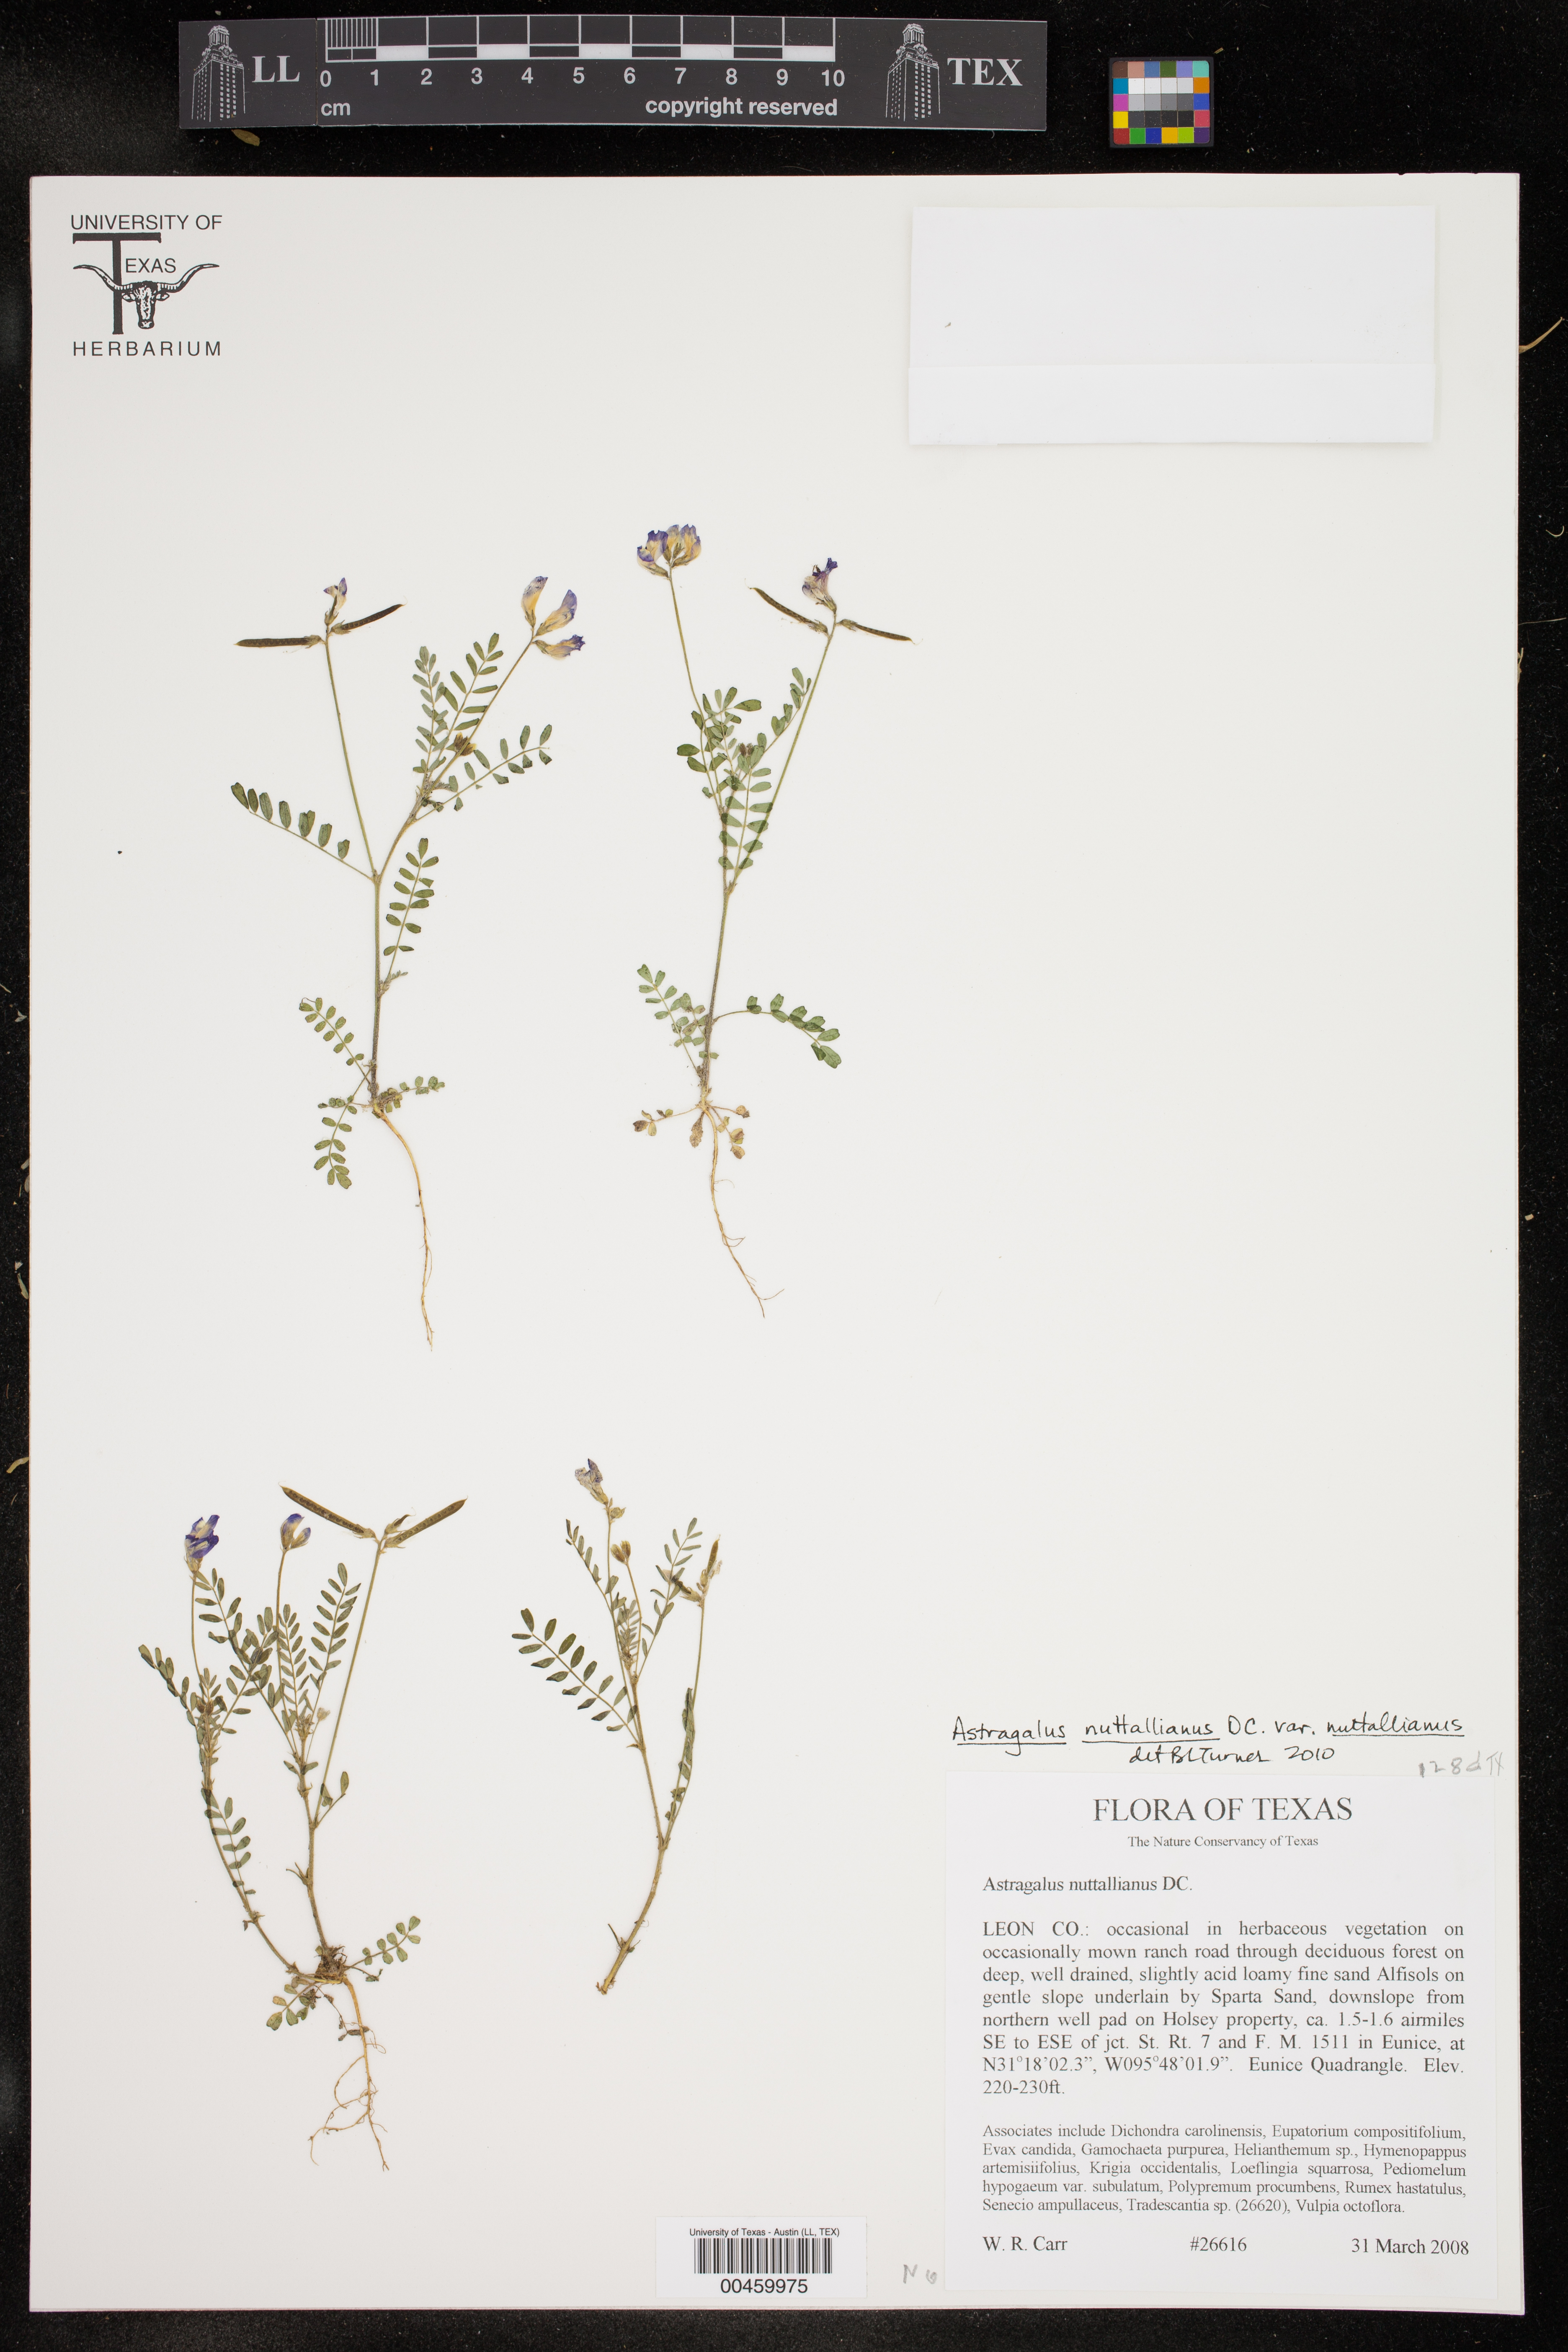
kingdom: Plantae
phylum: Tracheophyta
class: Magnoliopsida
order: Fabales
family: Fabaceae
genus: Astragalus
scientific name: Astragalus nuttallianus
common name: Smallflowered milkvetch
